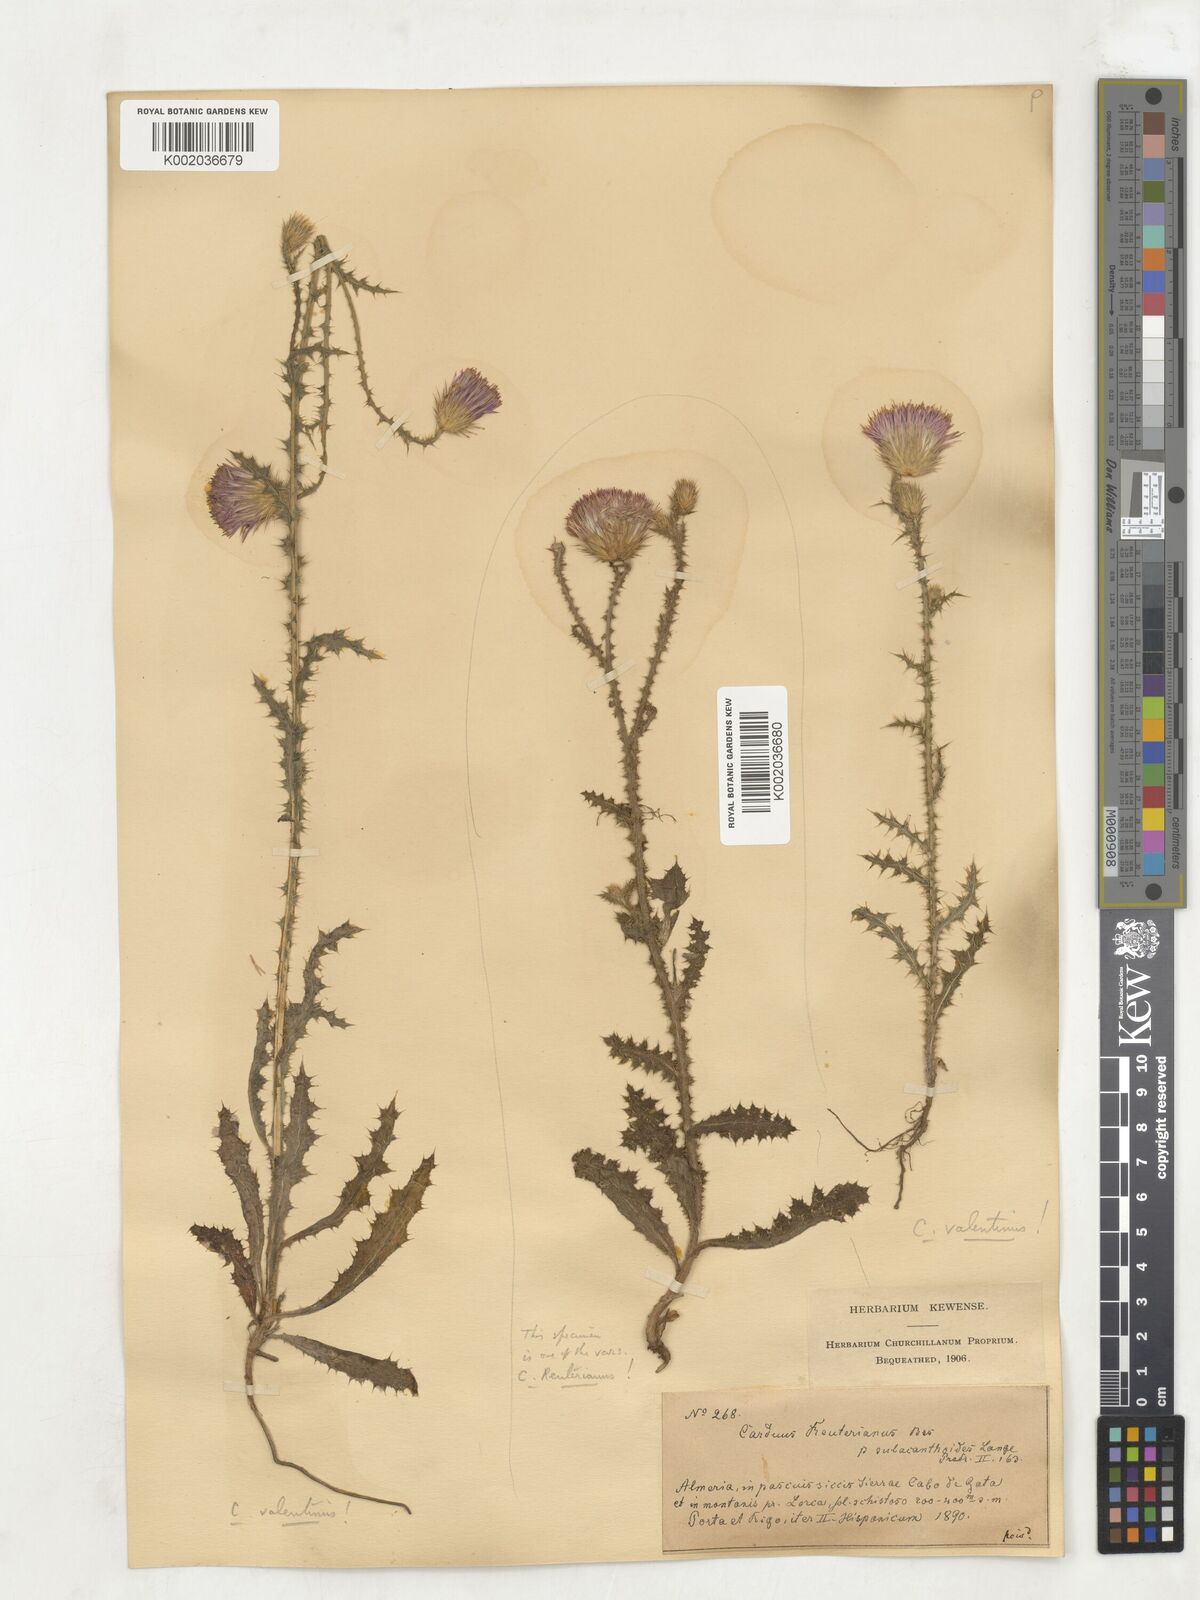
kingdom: Plantae
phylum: Tracheophyta
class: Magnoliopsida
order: Asterales
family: Asteraceae
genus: Carduus
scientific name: Carduus bourgeanus
